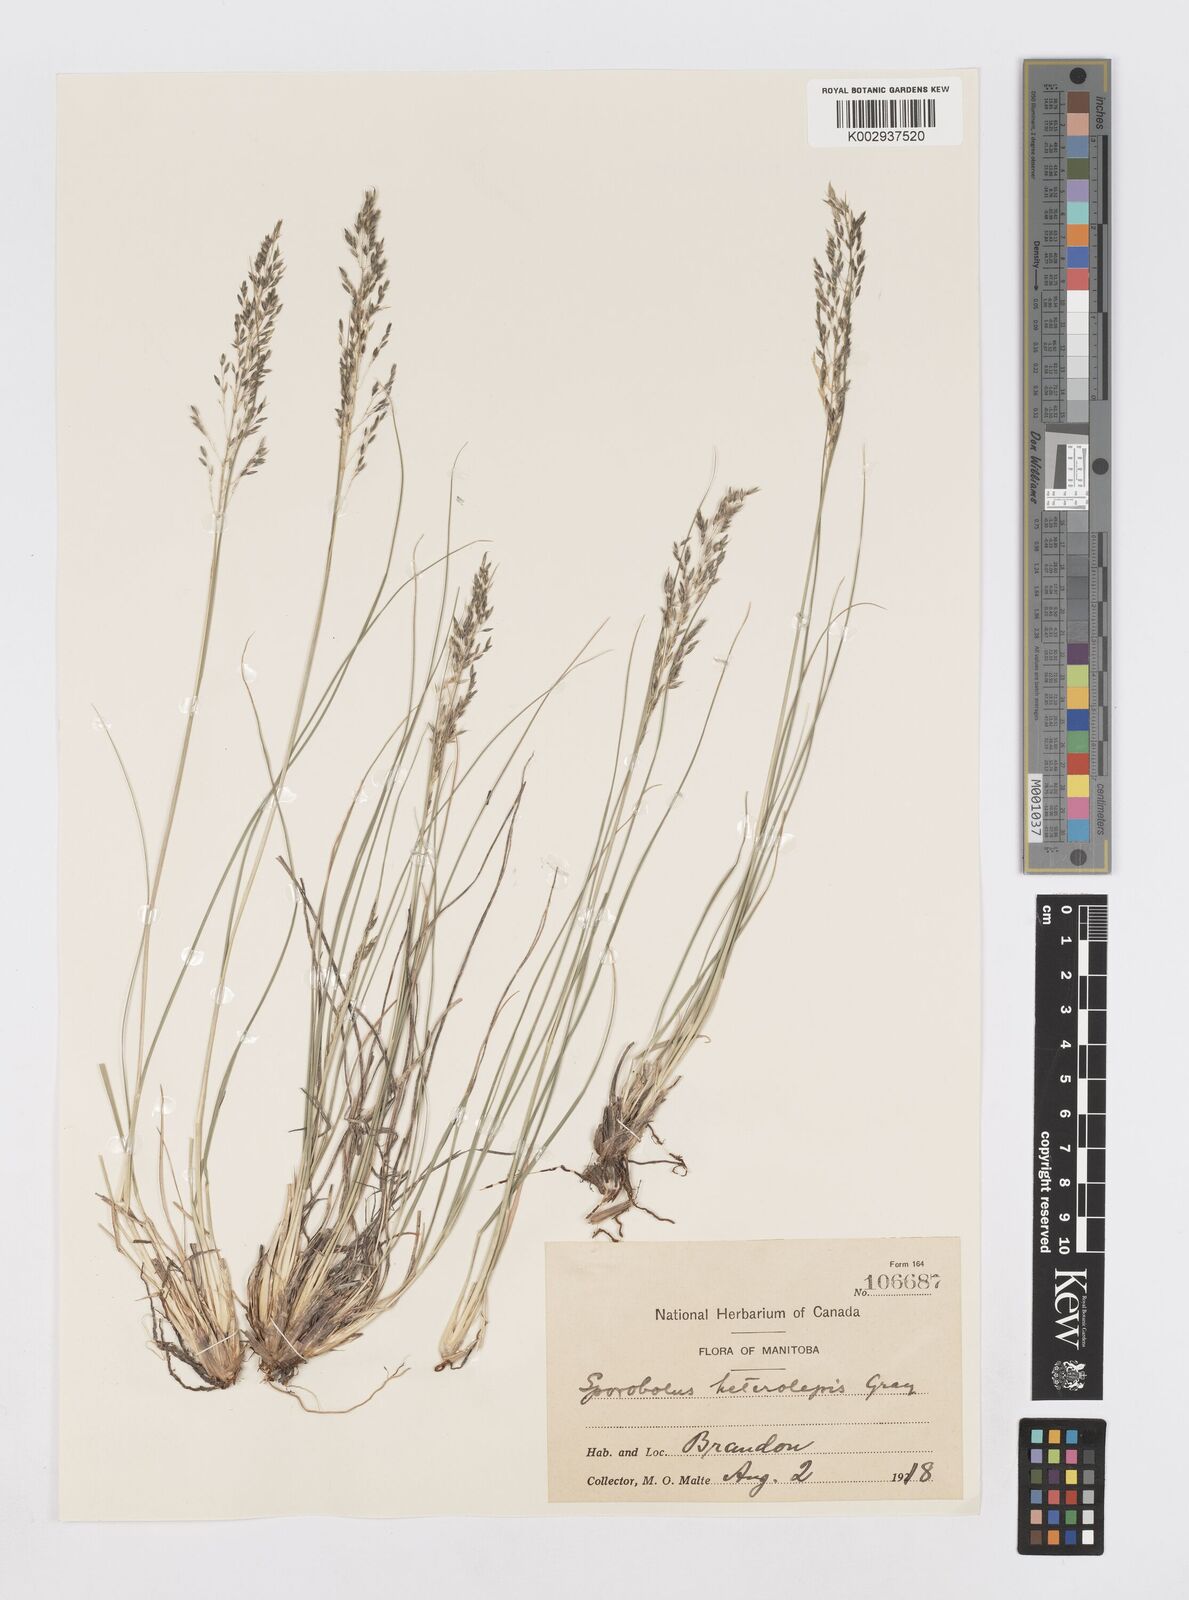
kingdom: Plantae
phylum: Tracheophyta
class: Liliopsida
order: Poales
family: Poaceae
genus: Sporobolus
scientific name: Sporobolus heterolepis
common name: Prairie dropseed
